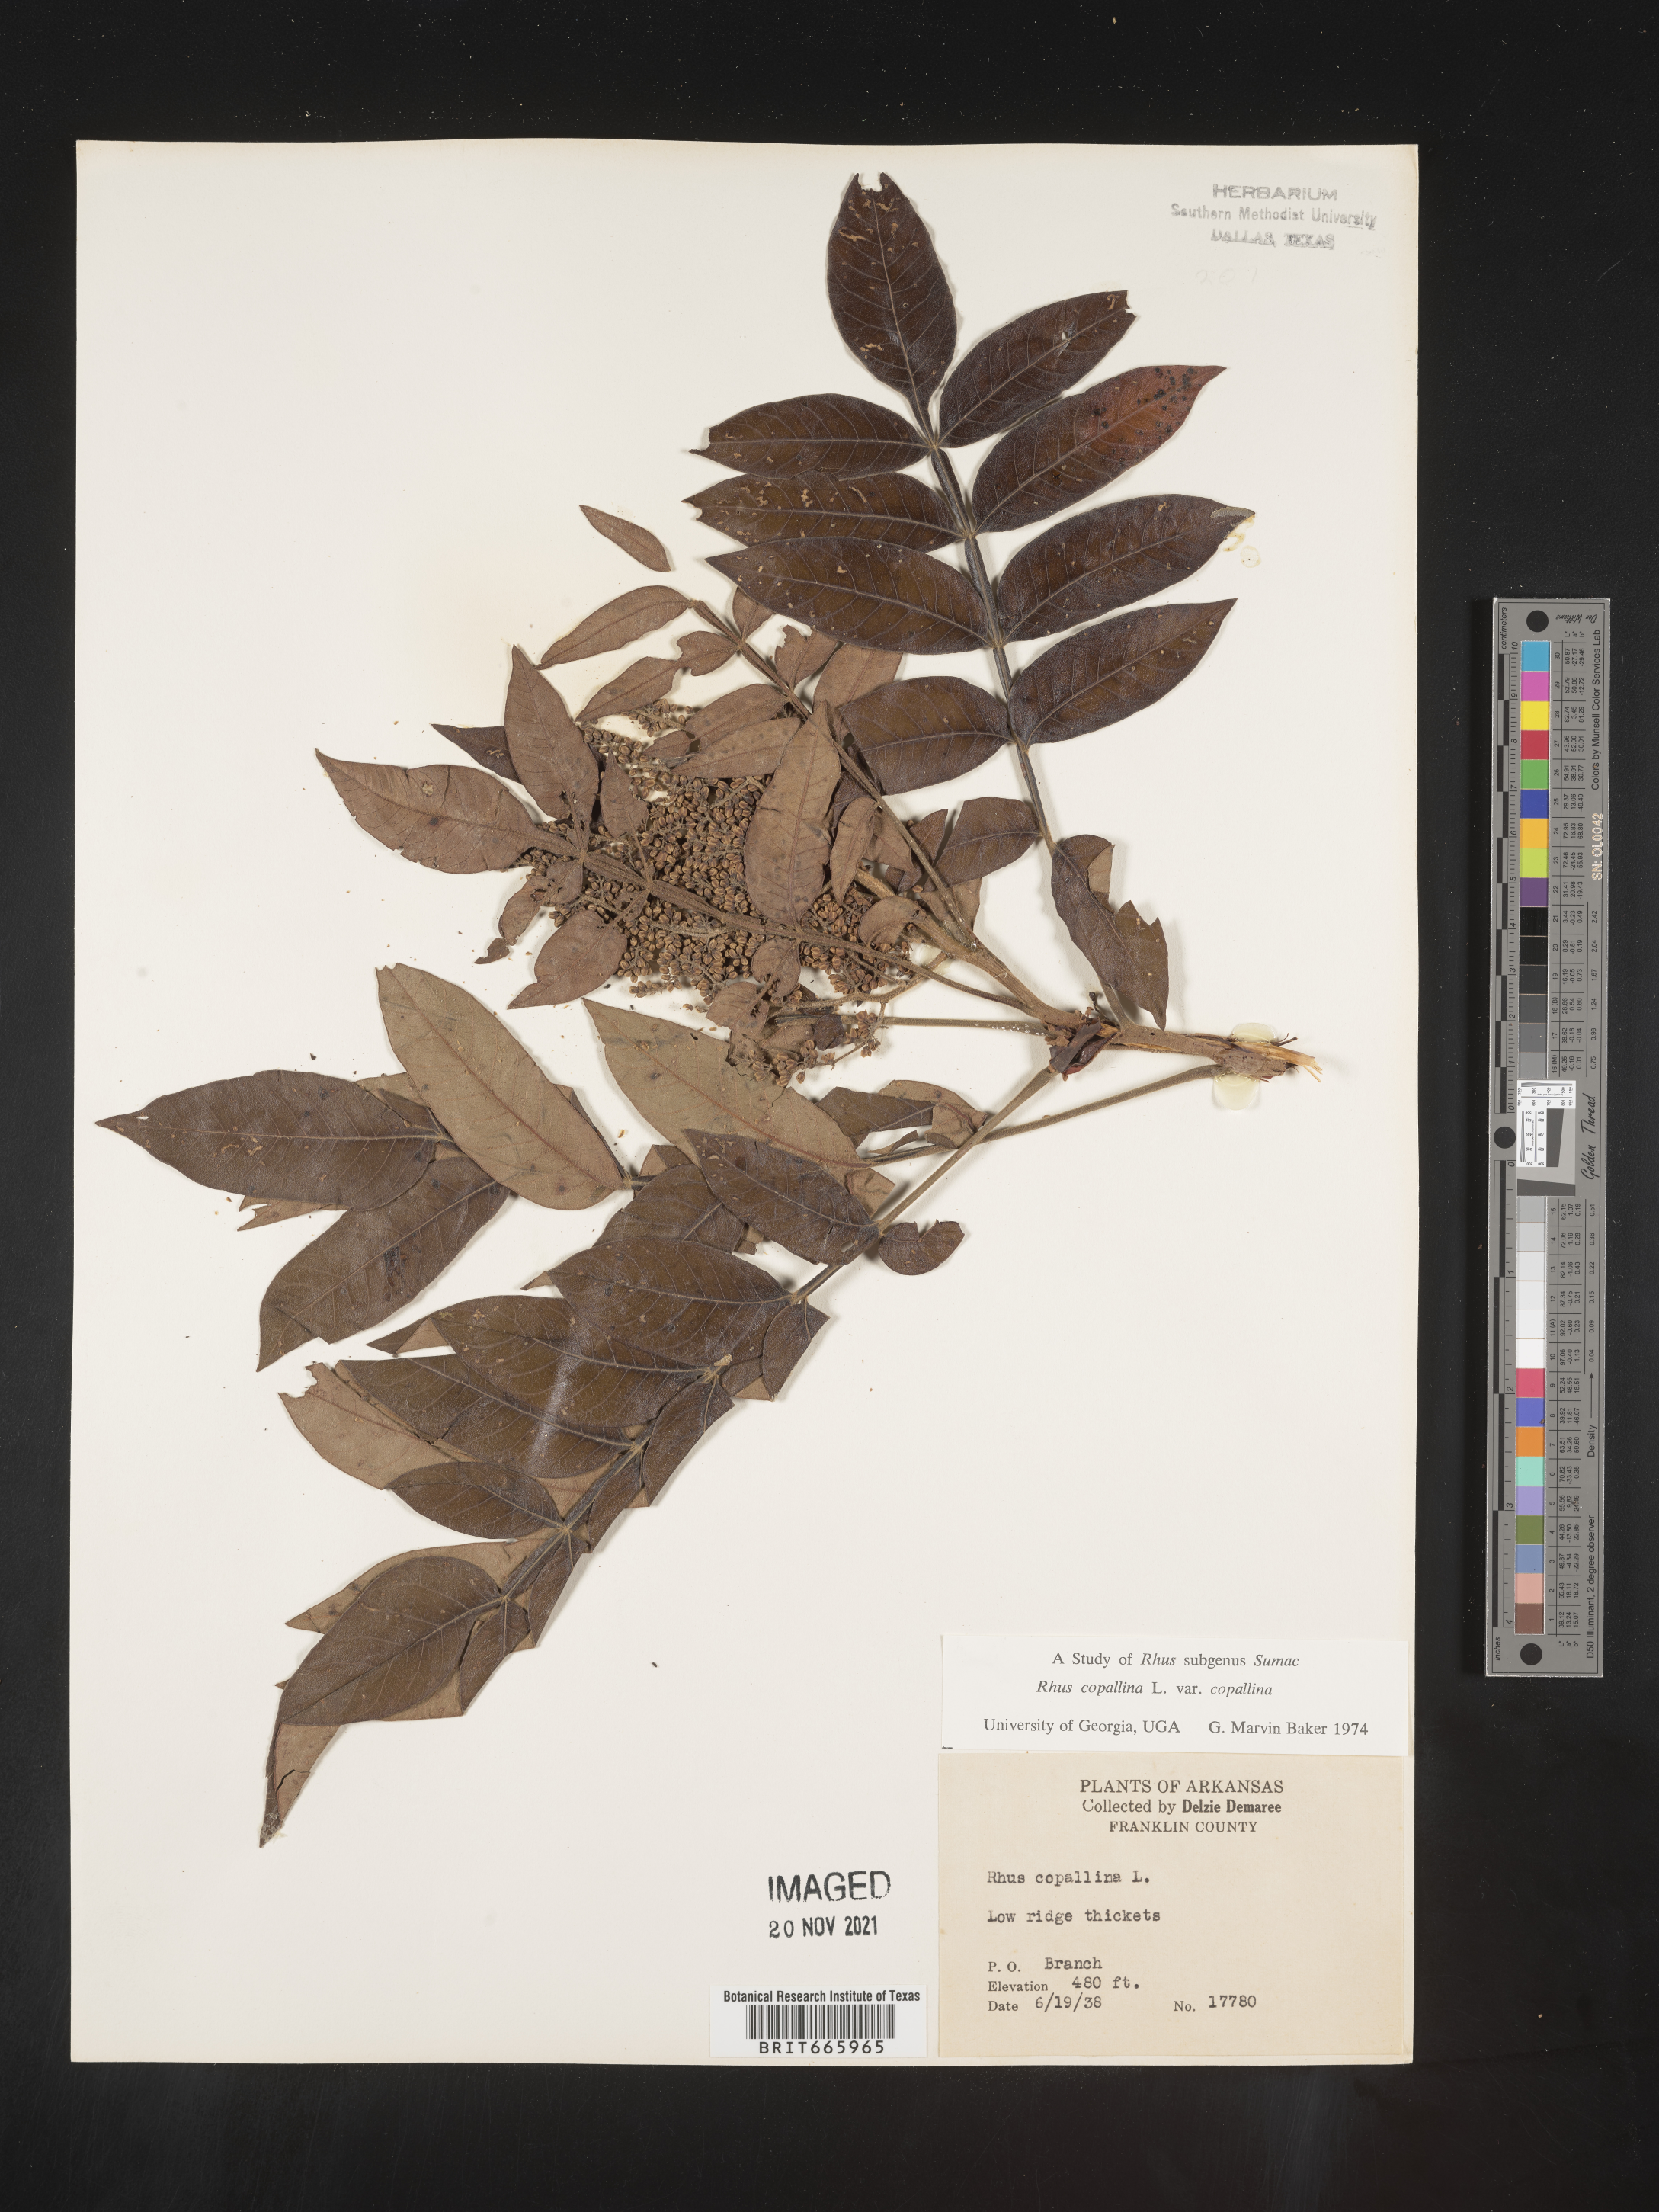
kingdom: Plantae
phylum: Tracheophyta
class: Magnoliopsida
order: Sapindales
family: Anacardiaceae
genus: Rhus
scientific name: Rhus copallina
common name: Shining sumac
